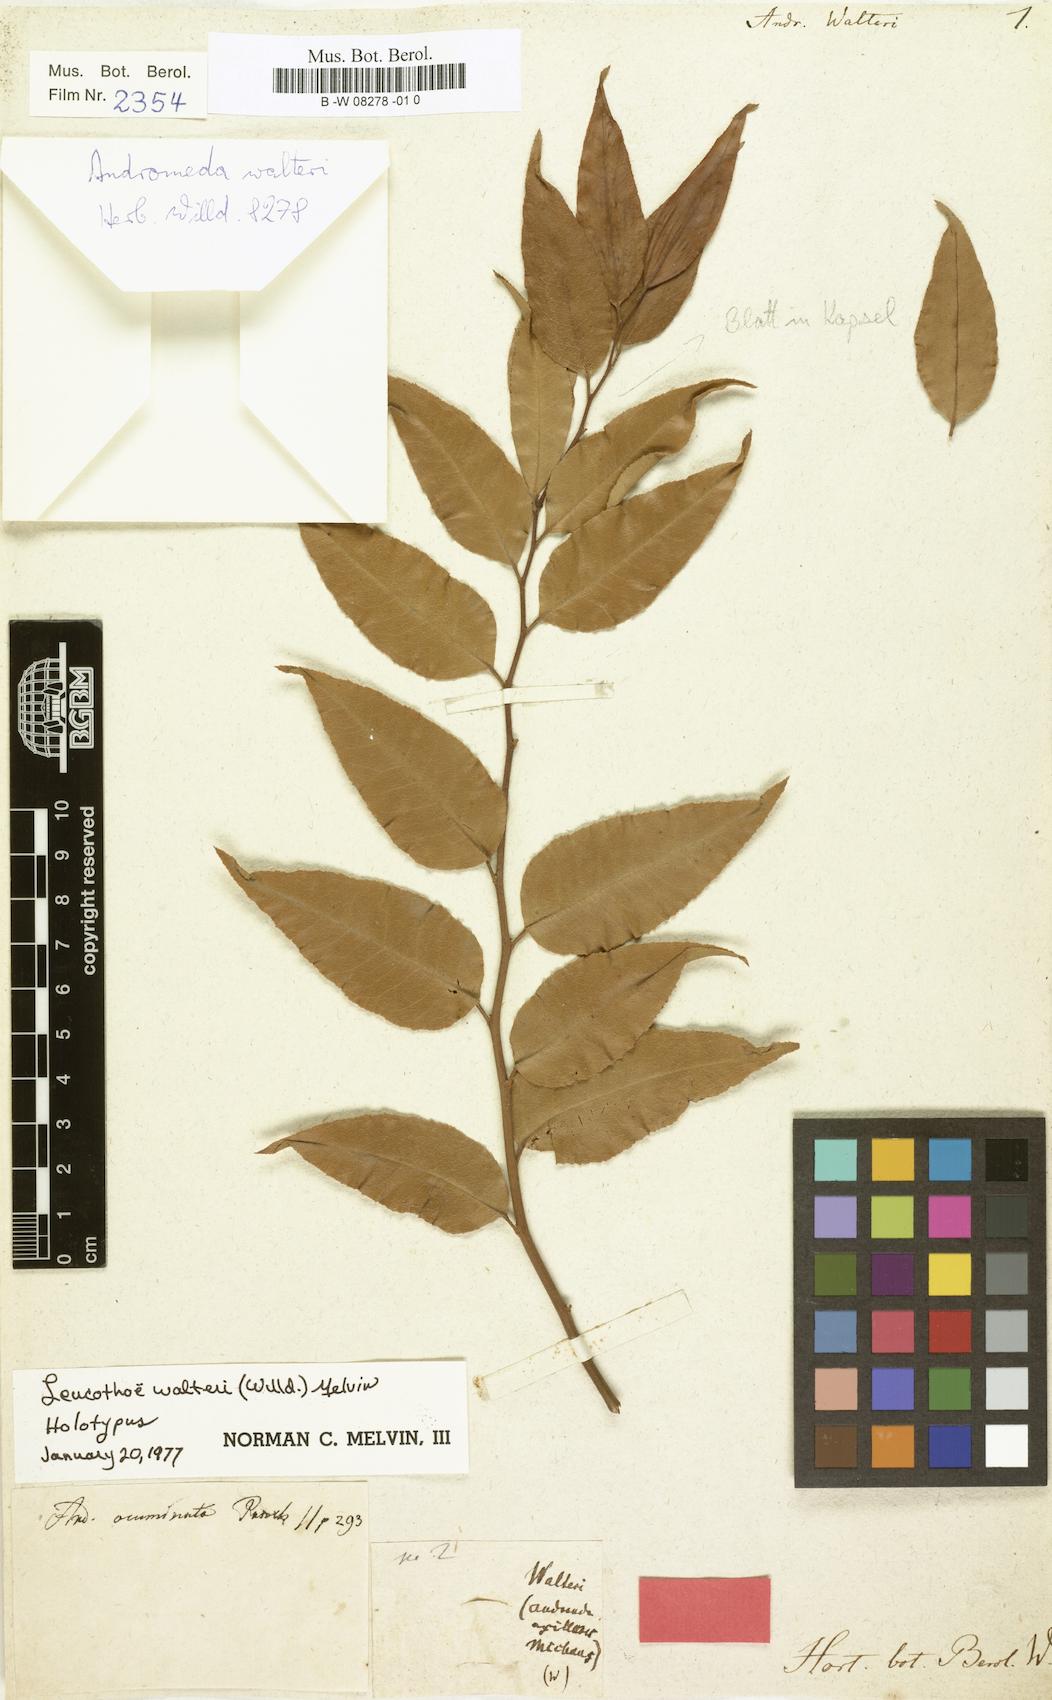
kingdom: Plantae
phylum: Tracheophyta
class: Magnoliopsida
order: Ericales
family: Ericaceae
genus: Agarista
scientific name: Agarista populifolia
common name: Pipeplant
